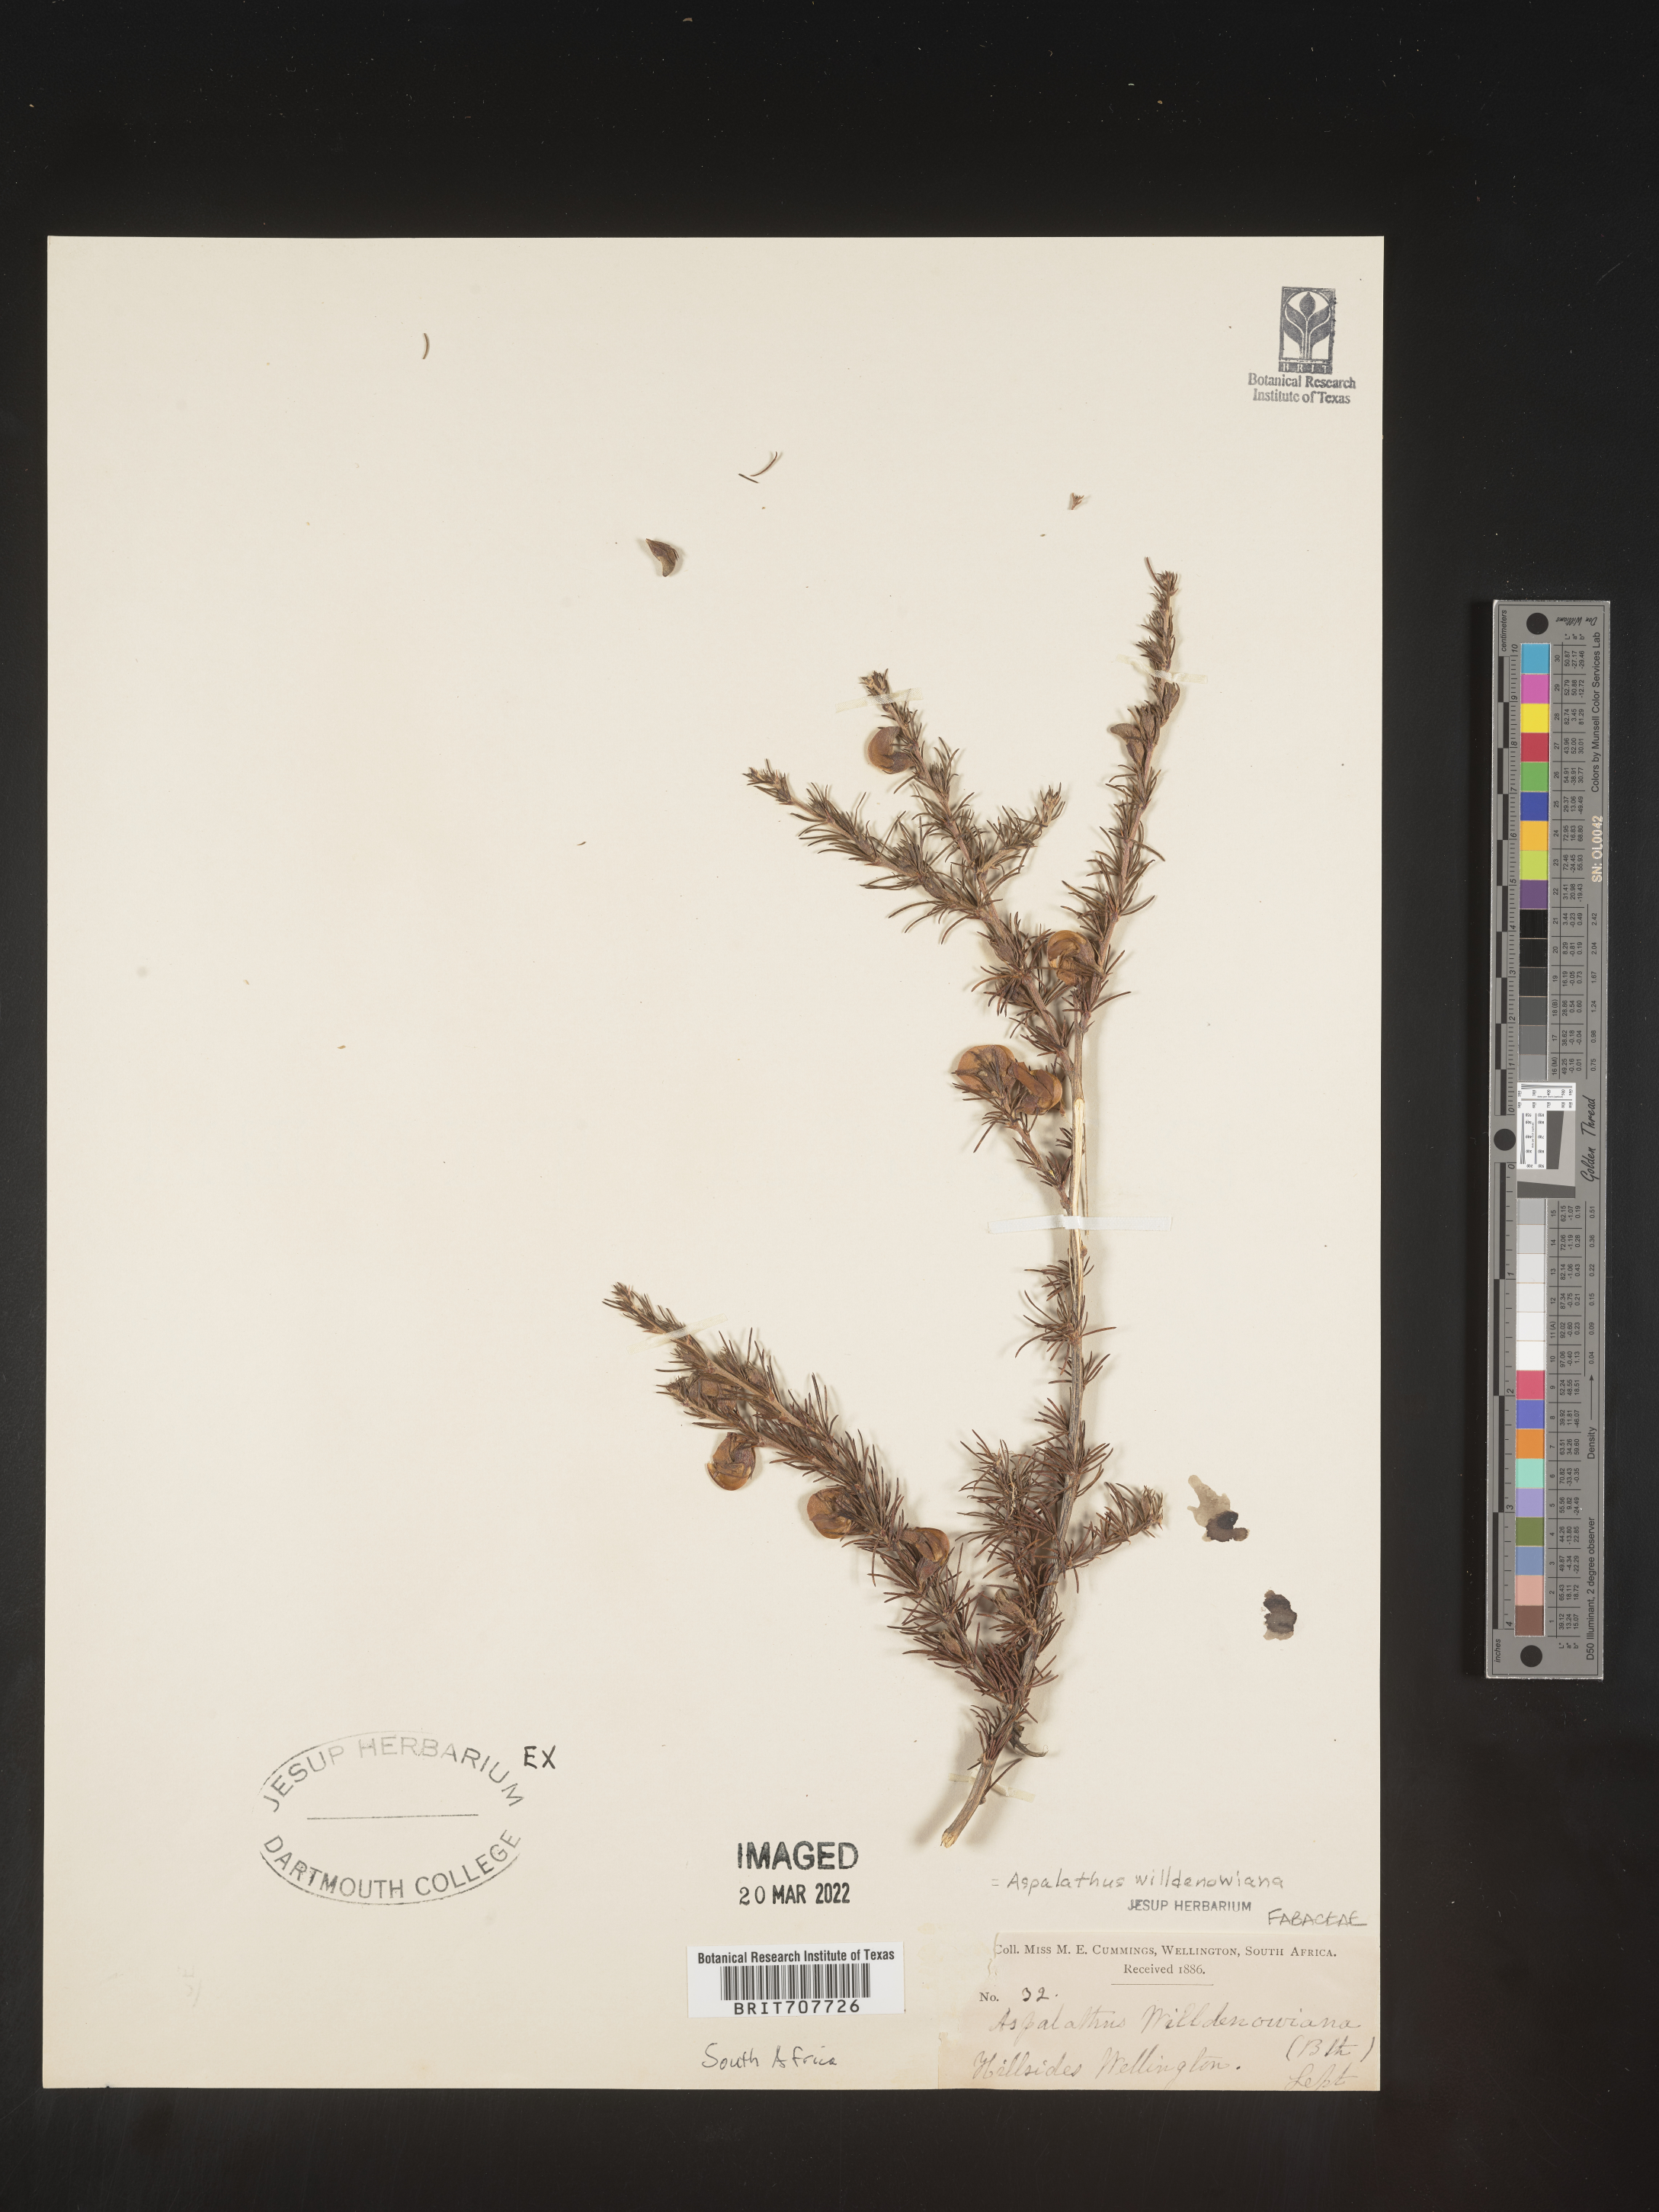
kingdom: Plantae
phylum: Tracheophyta
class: Magnoliopsida
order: Fabales
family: Fabaceae
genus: Aspalathus
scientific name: Aspalathus
